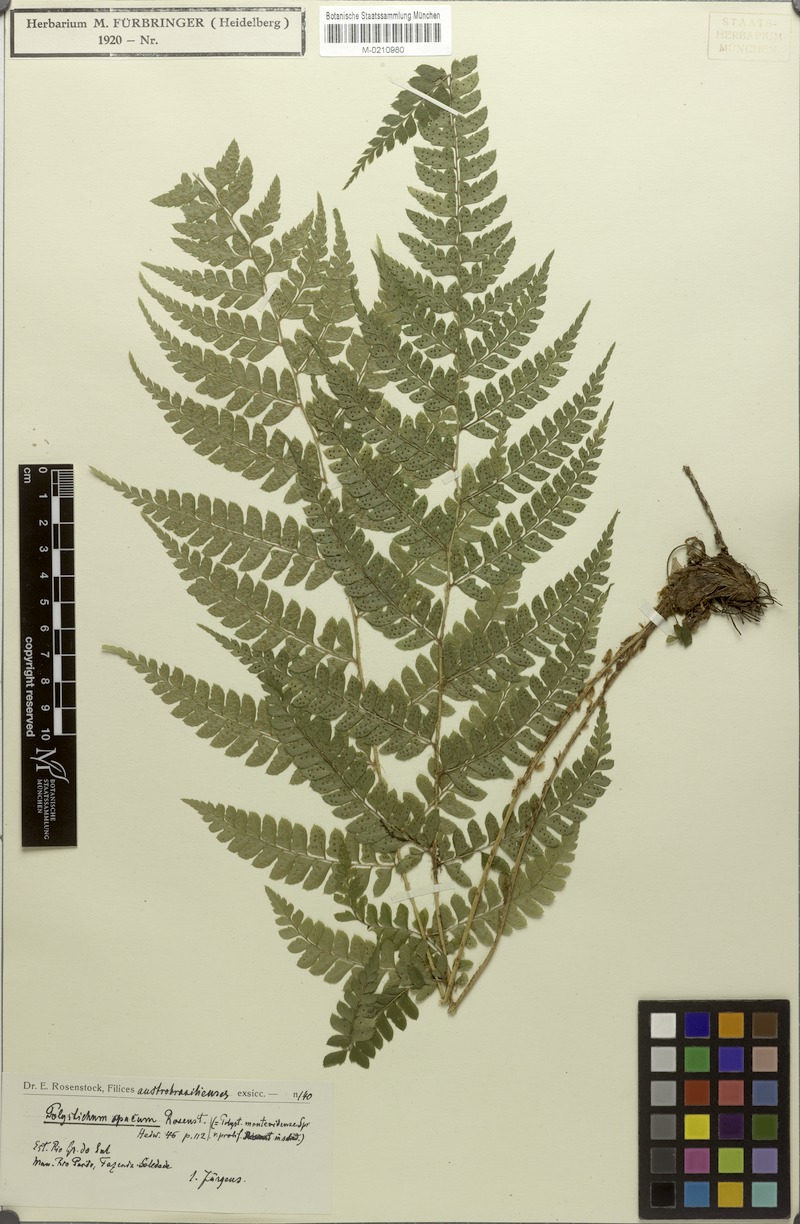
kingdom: Plantae
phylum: Tracheophyta
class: Polypodiopsida
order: Polypodiales
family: Dryopteridaceae
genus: Polystichum
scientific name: Polystichum platyphyllum
